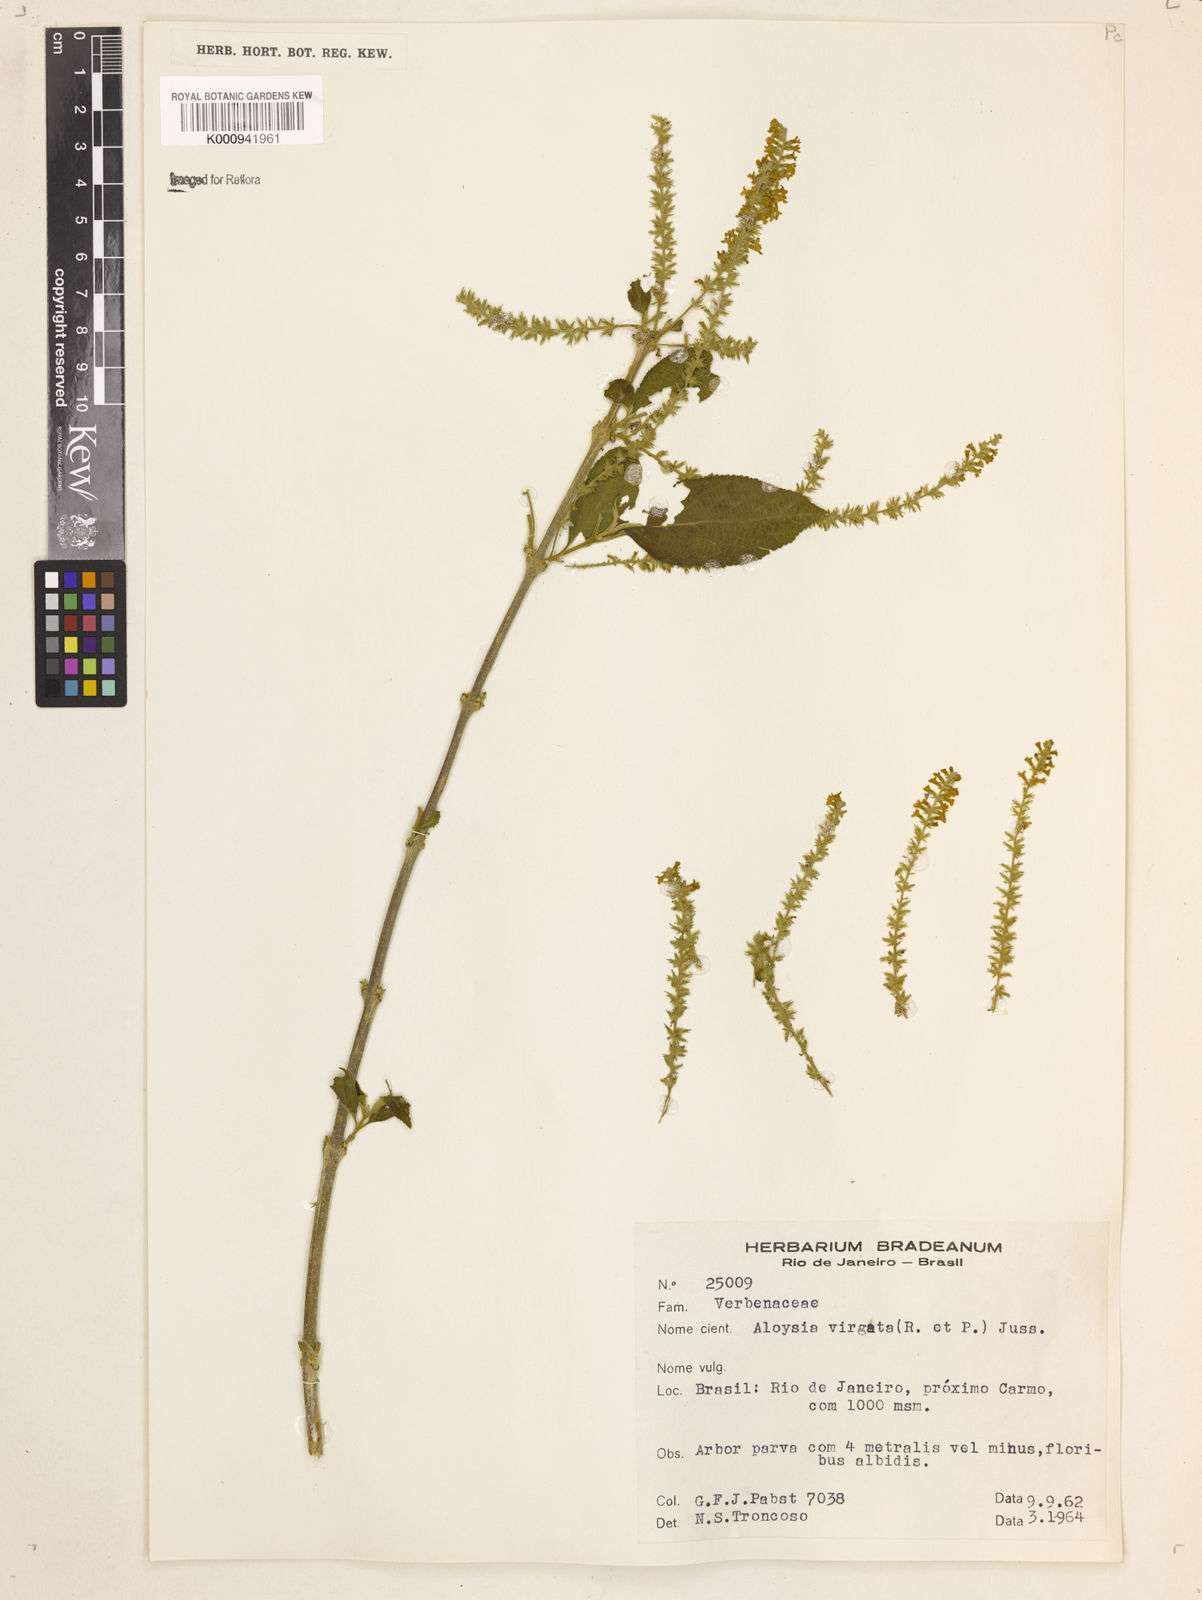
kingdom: Plantae
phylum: Tracheophyta
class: Magnoliopsida
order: Lamiales
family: Verbenaceae
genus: Aloysia
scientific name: Aloysia
